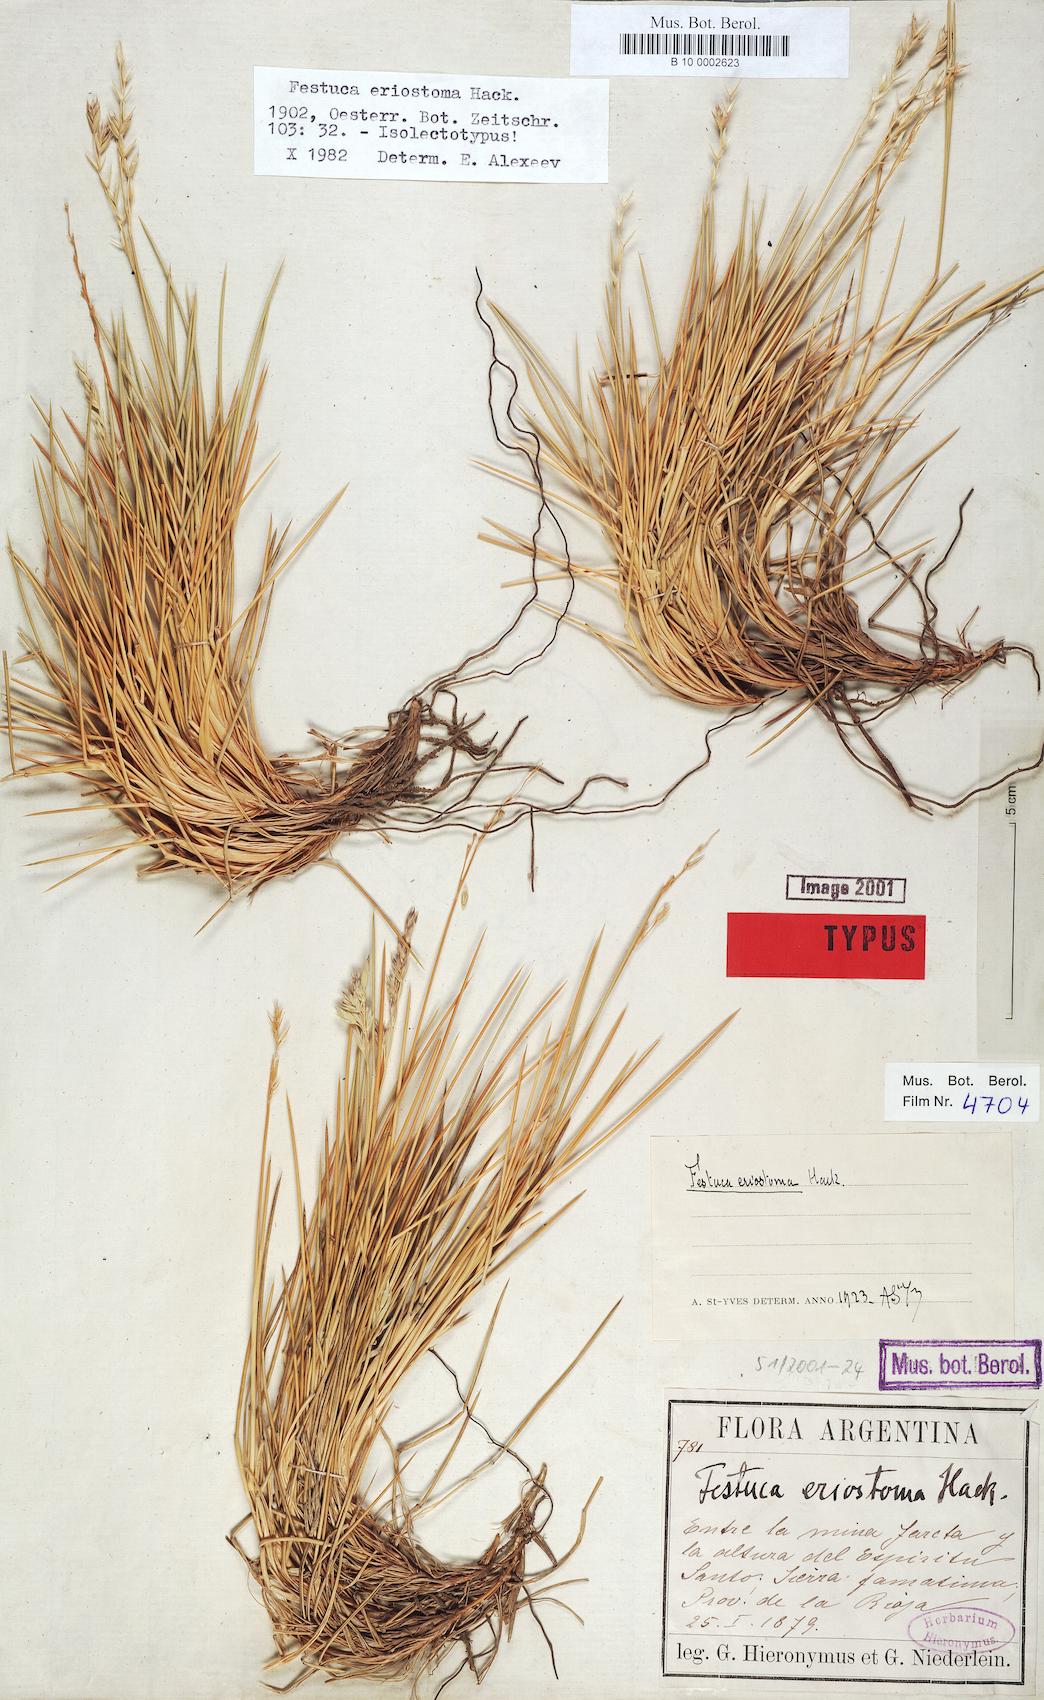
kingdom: Plantae
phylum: Tracheophyta
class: Liliopsida
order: Poales
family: Poaceae
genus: Festuca
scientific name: Festuca chrysophylla
